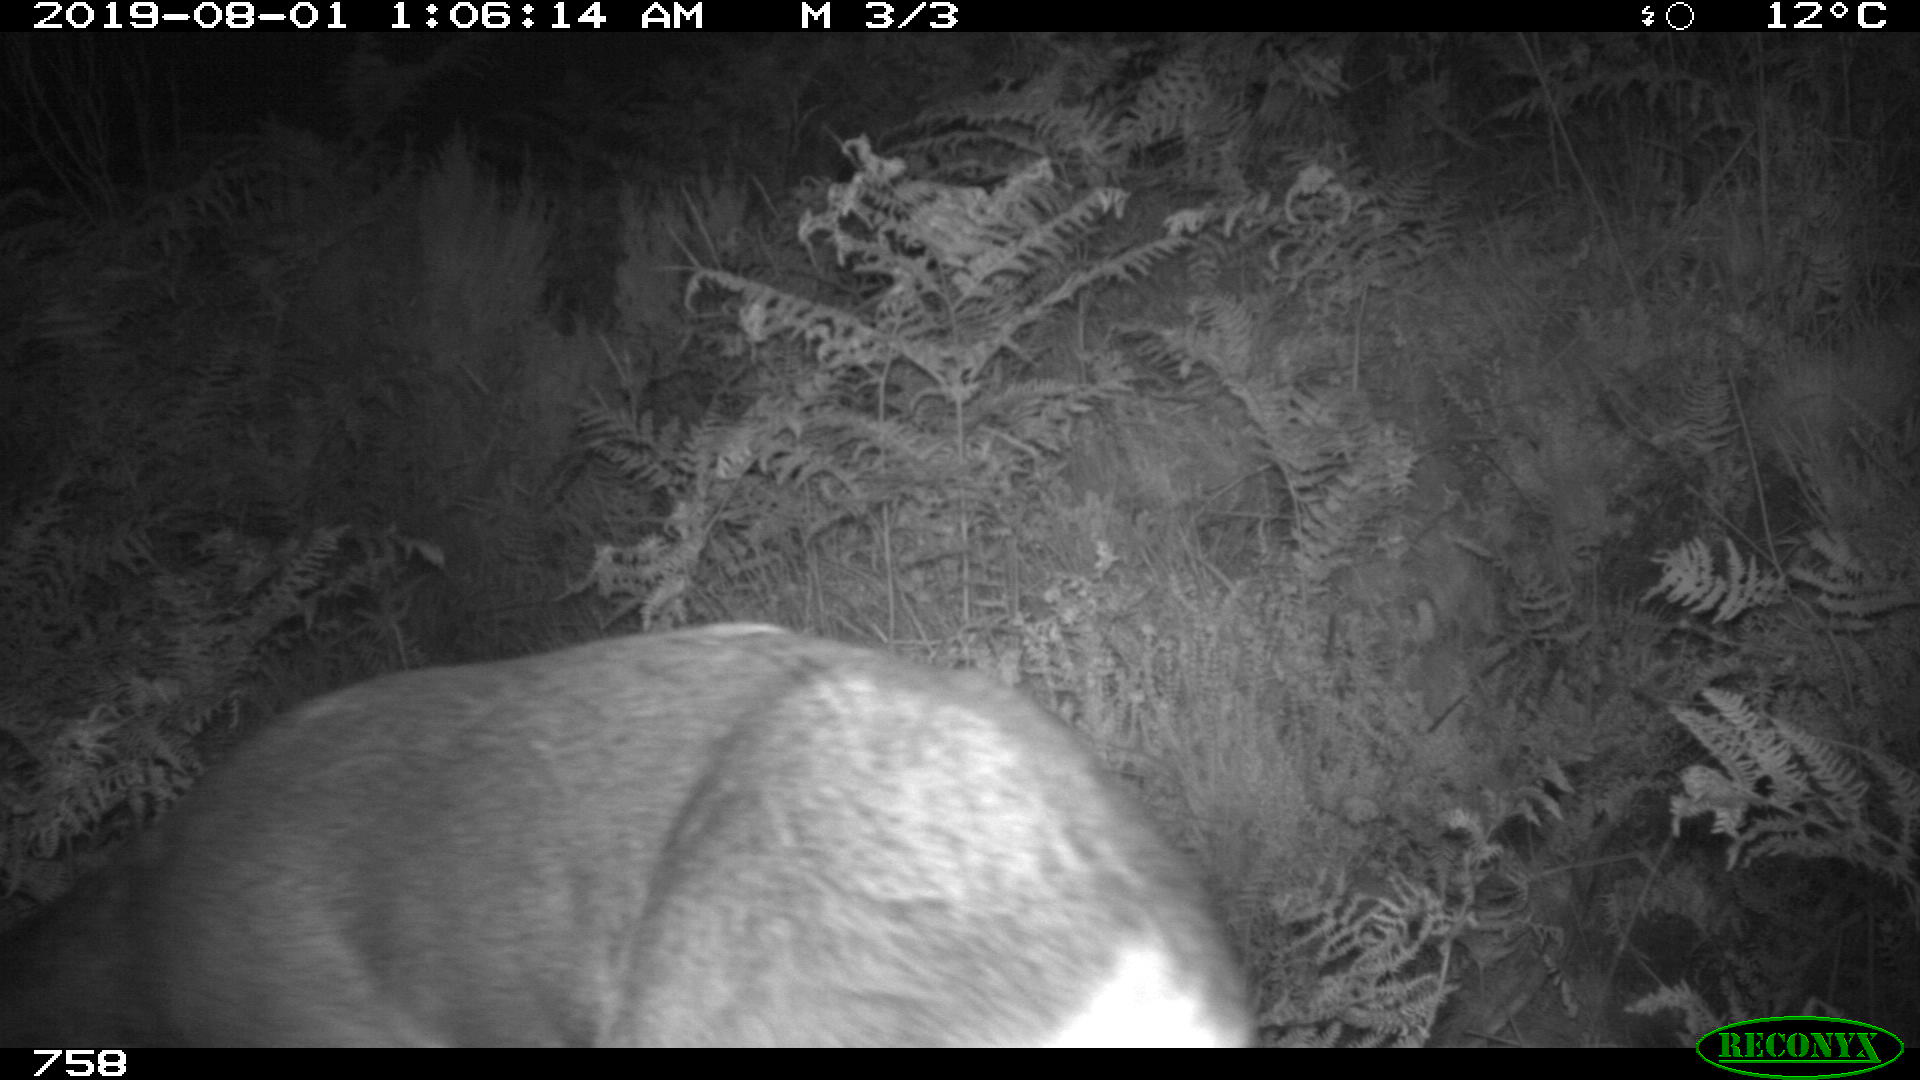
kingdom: Animalia
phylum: Chordata
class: Mammalia
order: Artiodactyla
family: Cervidae
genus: Capreolus
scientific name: Capreolus capreolus
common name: Western roe deer
